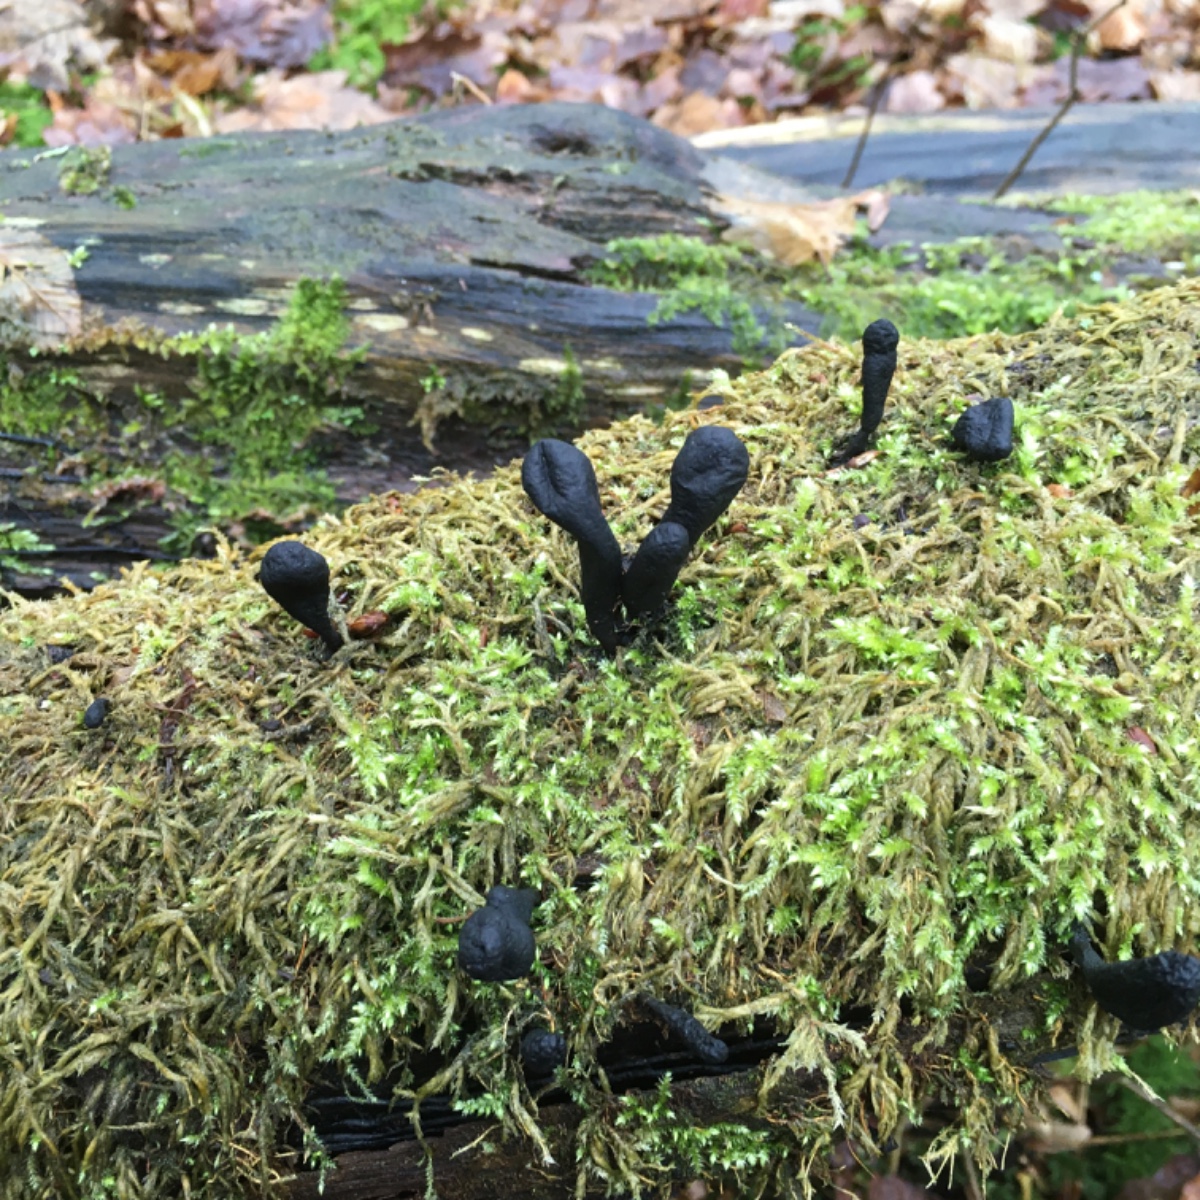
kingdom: Fungi
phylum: Ascomycota
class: Sordariomycetes
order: Xylariales
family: Xylariaceae
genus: Xylaria
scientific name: Xylaria
